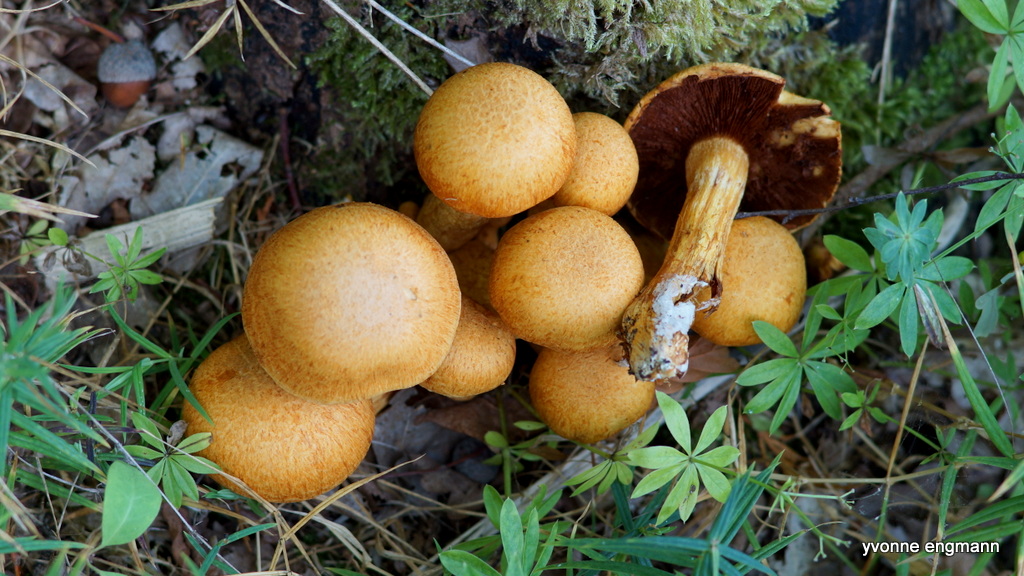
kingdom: Fungi
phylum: Basidiomycota
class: Agaricomycetes
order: Agaricales
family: Hymenogastraceae
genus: Gymnopilus
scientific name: Gymnopilus spectabilis
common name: fibret flammehat
